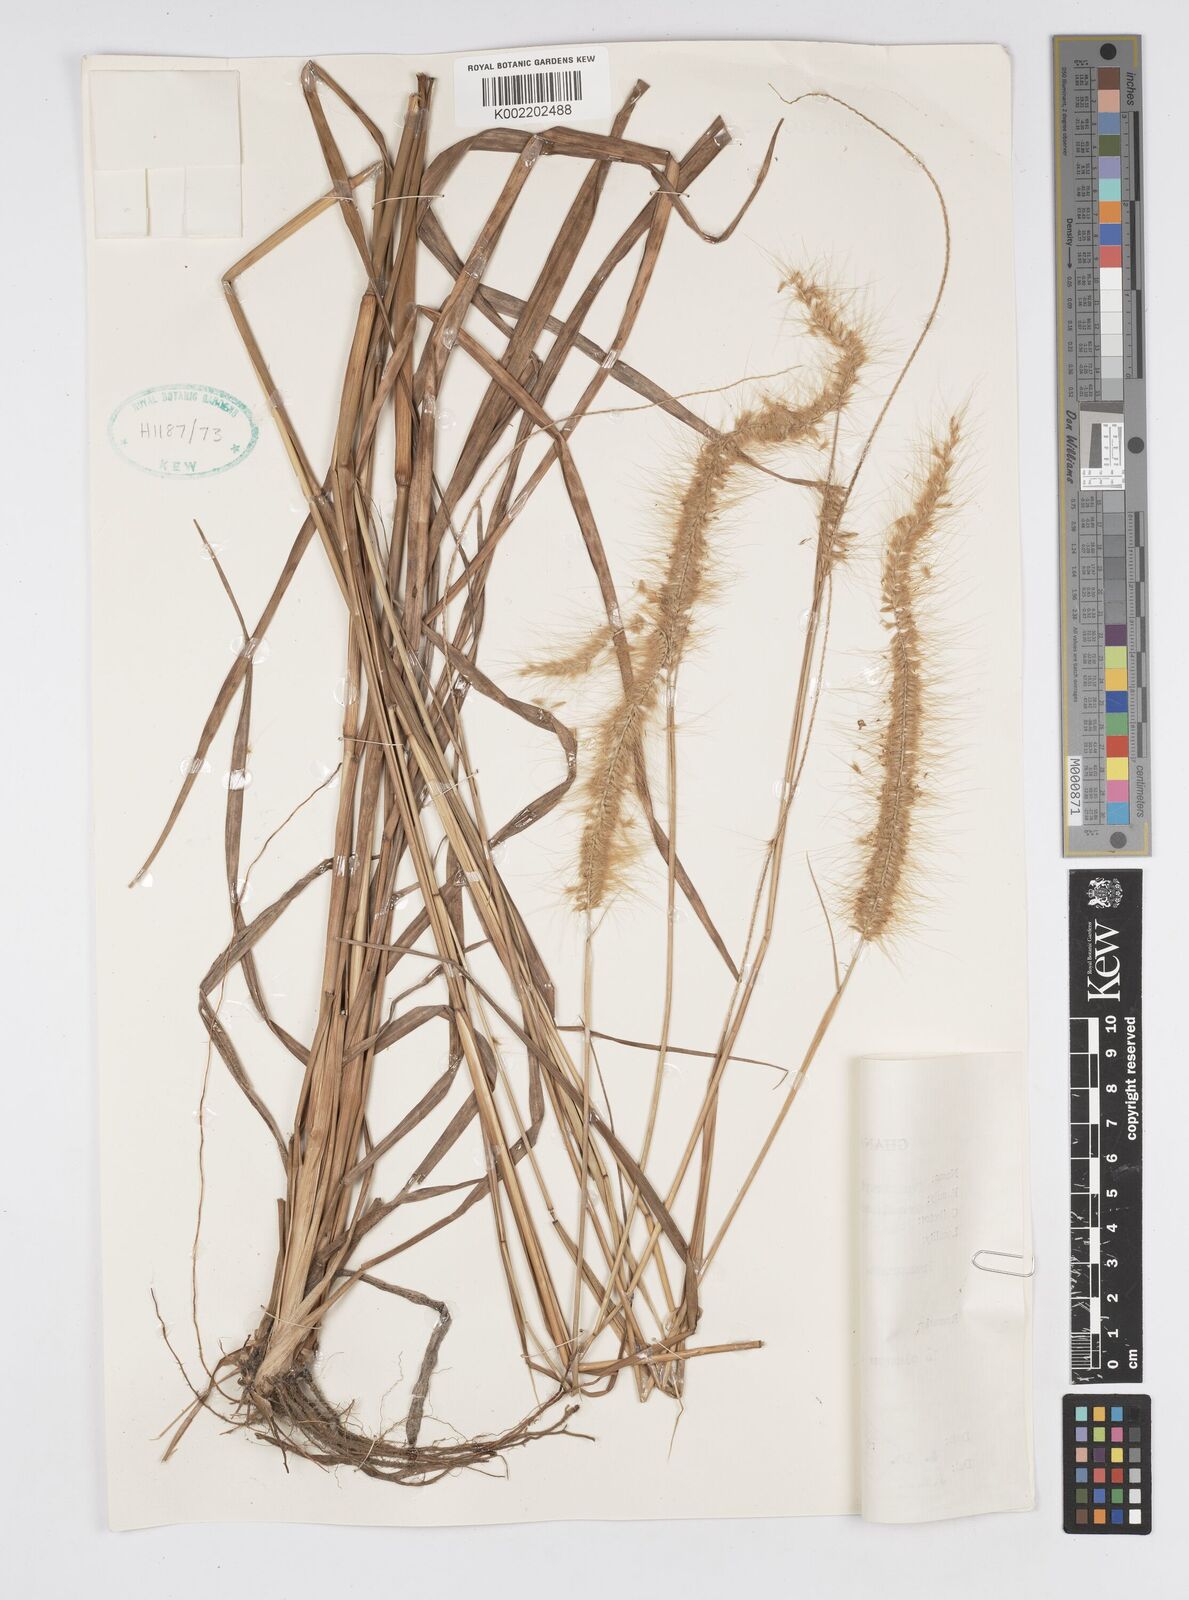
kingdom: Plantae
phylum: Tracheophyta
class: Liliopsida
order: Poales
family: Poaceae
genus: Setaria
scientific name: Setaria parviflora
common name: Knotroot bristle-grass
